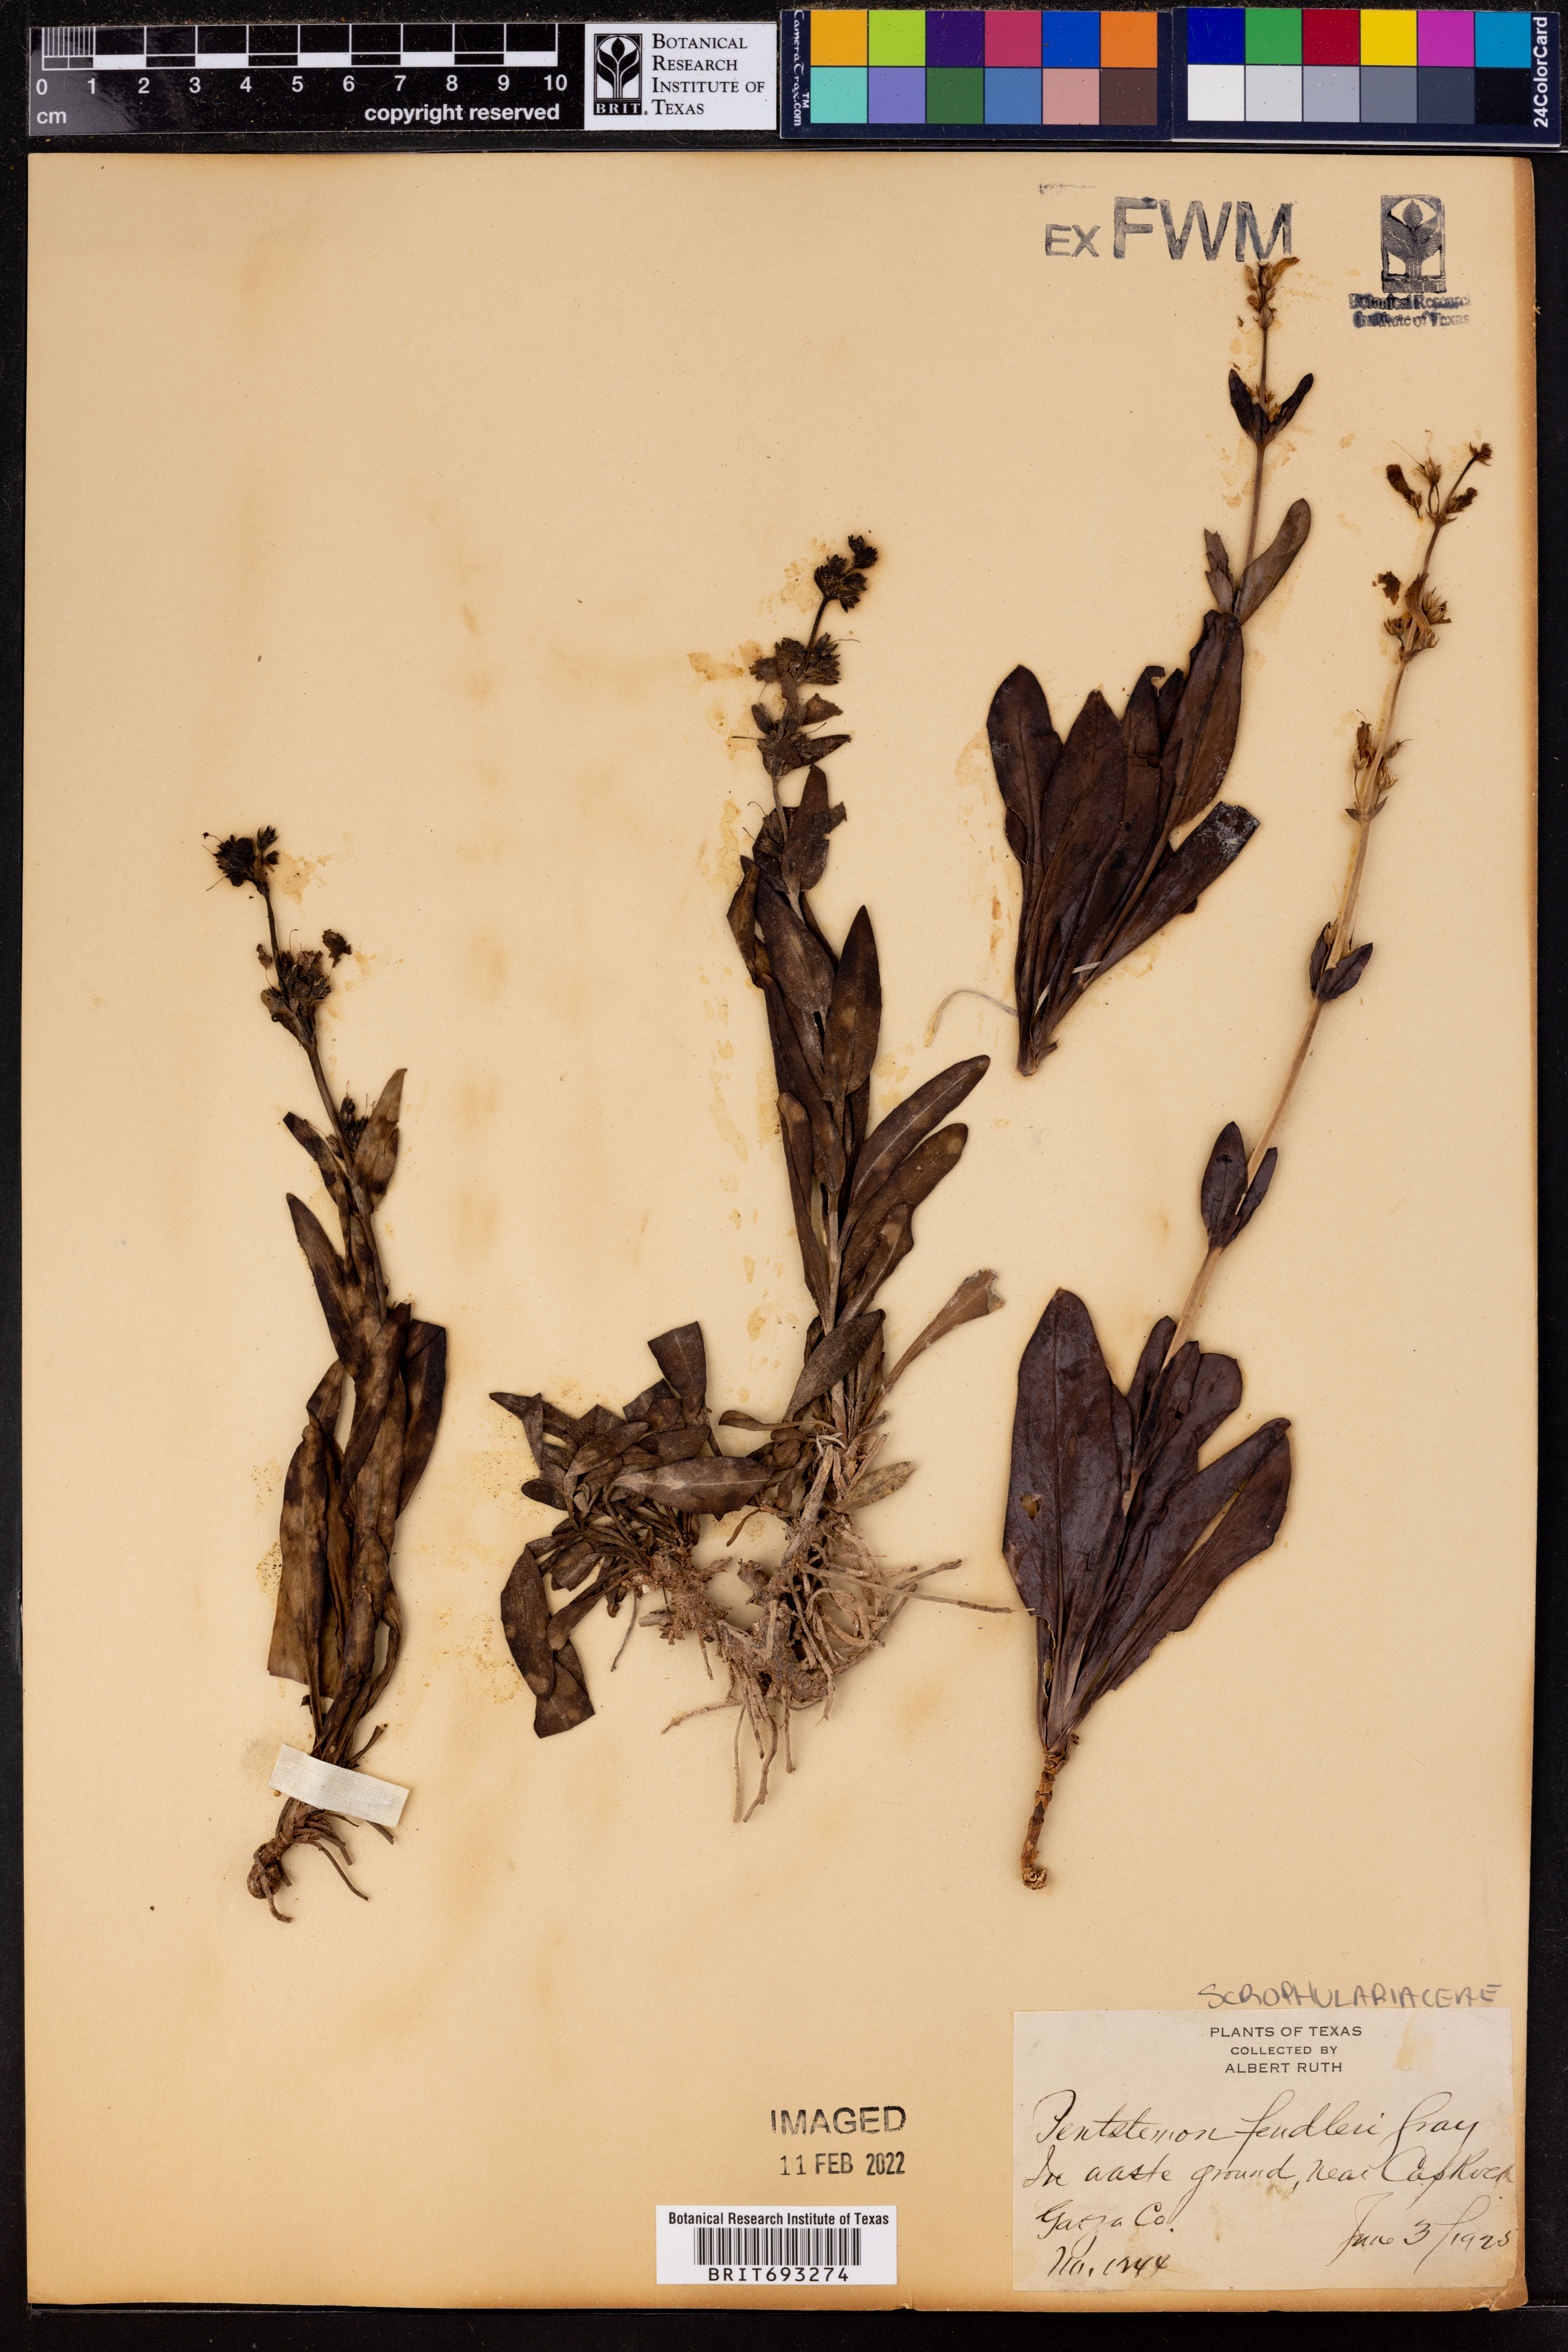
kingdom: Plantae
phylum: Tracheophyta
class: Magnoliopsida
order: Lamiales
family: Plantaginaceae
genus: Penstemon
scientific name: Penstemon fendleri
